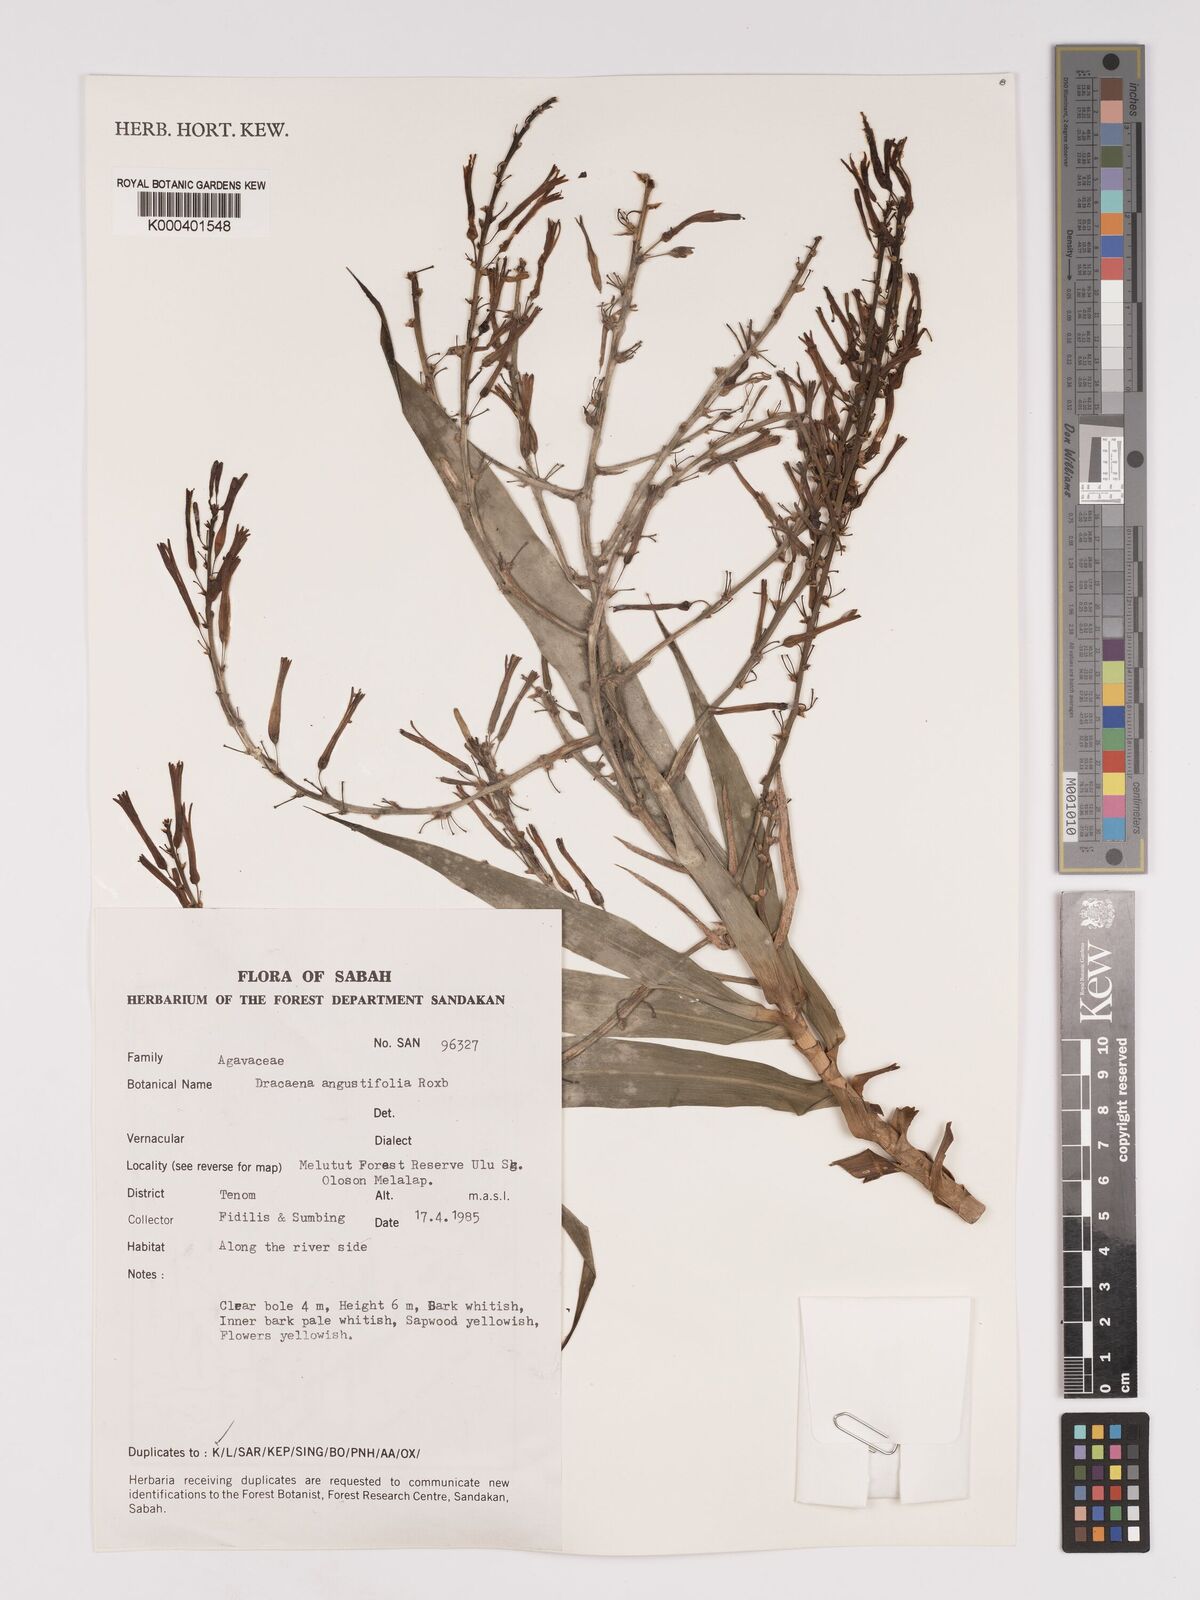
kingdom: Plantae
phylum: Tracheophyta
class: Liliopsida
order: Asparagales
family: Asparagaceae
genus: Dracaena
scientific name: Dracaena angustifolia
